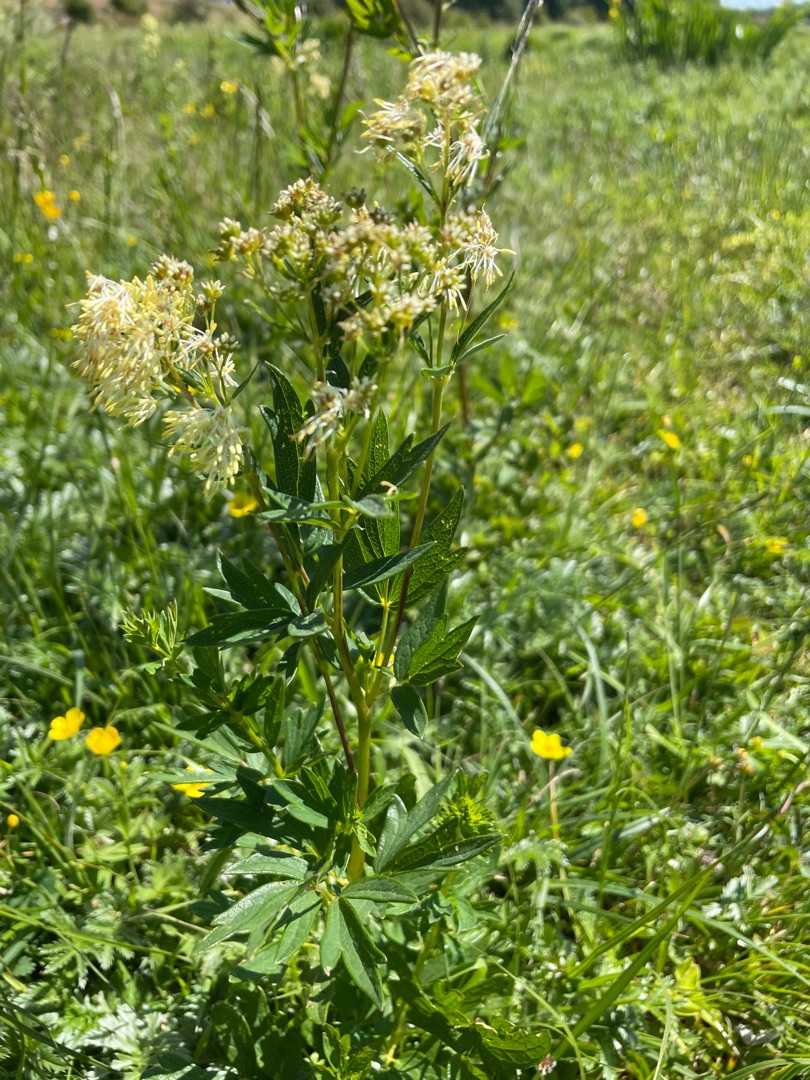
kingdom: Plantae
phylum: Tracheophyta
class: Magnoliopsida
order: Ranunculales
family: Ranunculaceae
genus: Thalictrum
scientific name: Thalictrum flavum
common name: Gul frøstjerne
